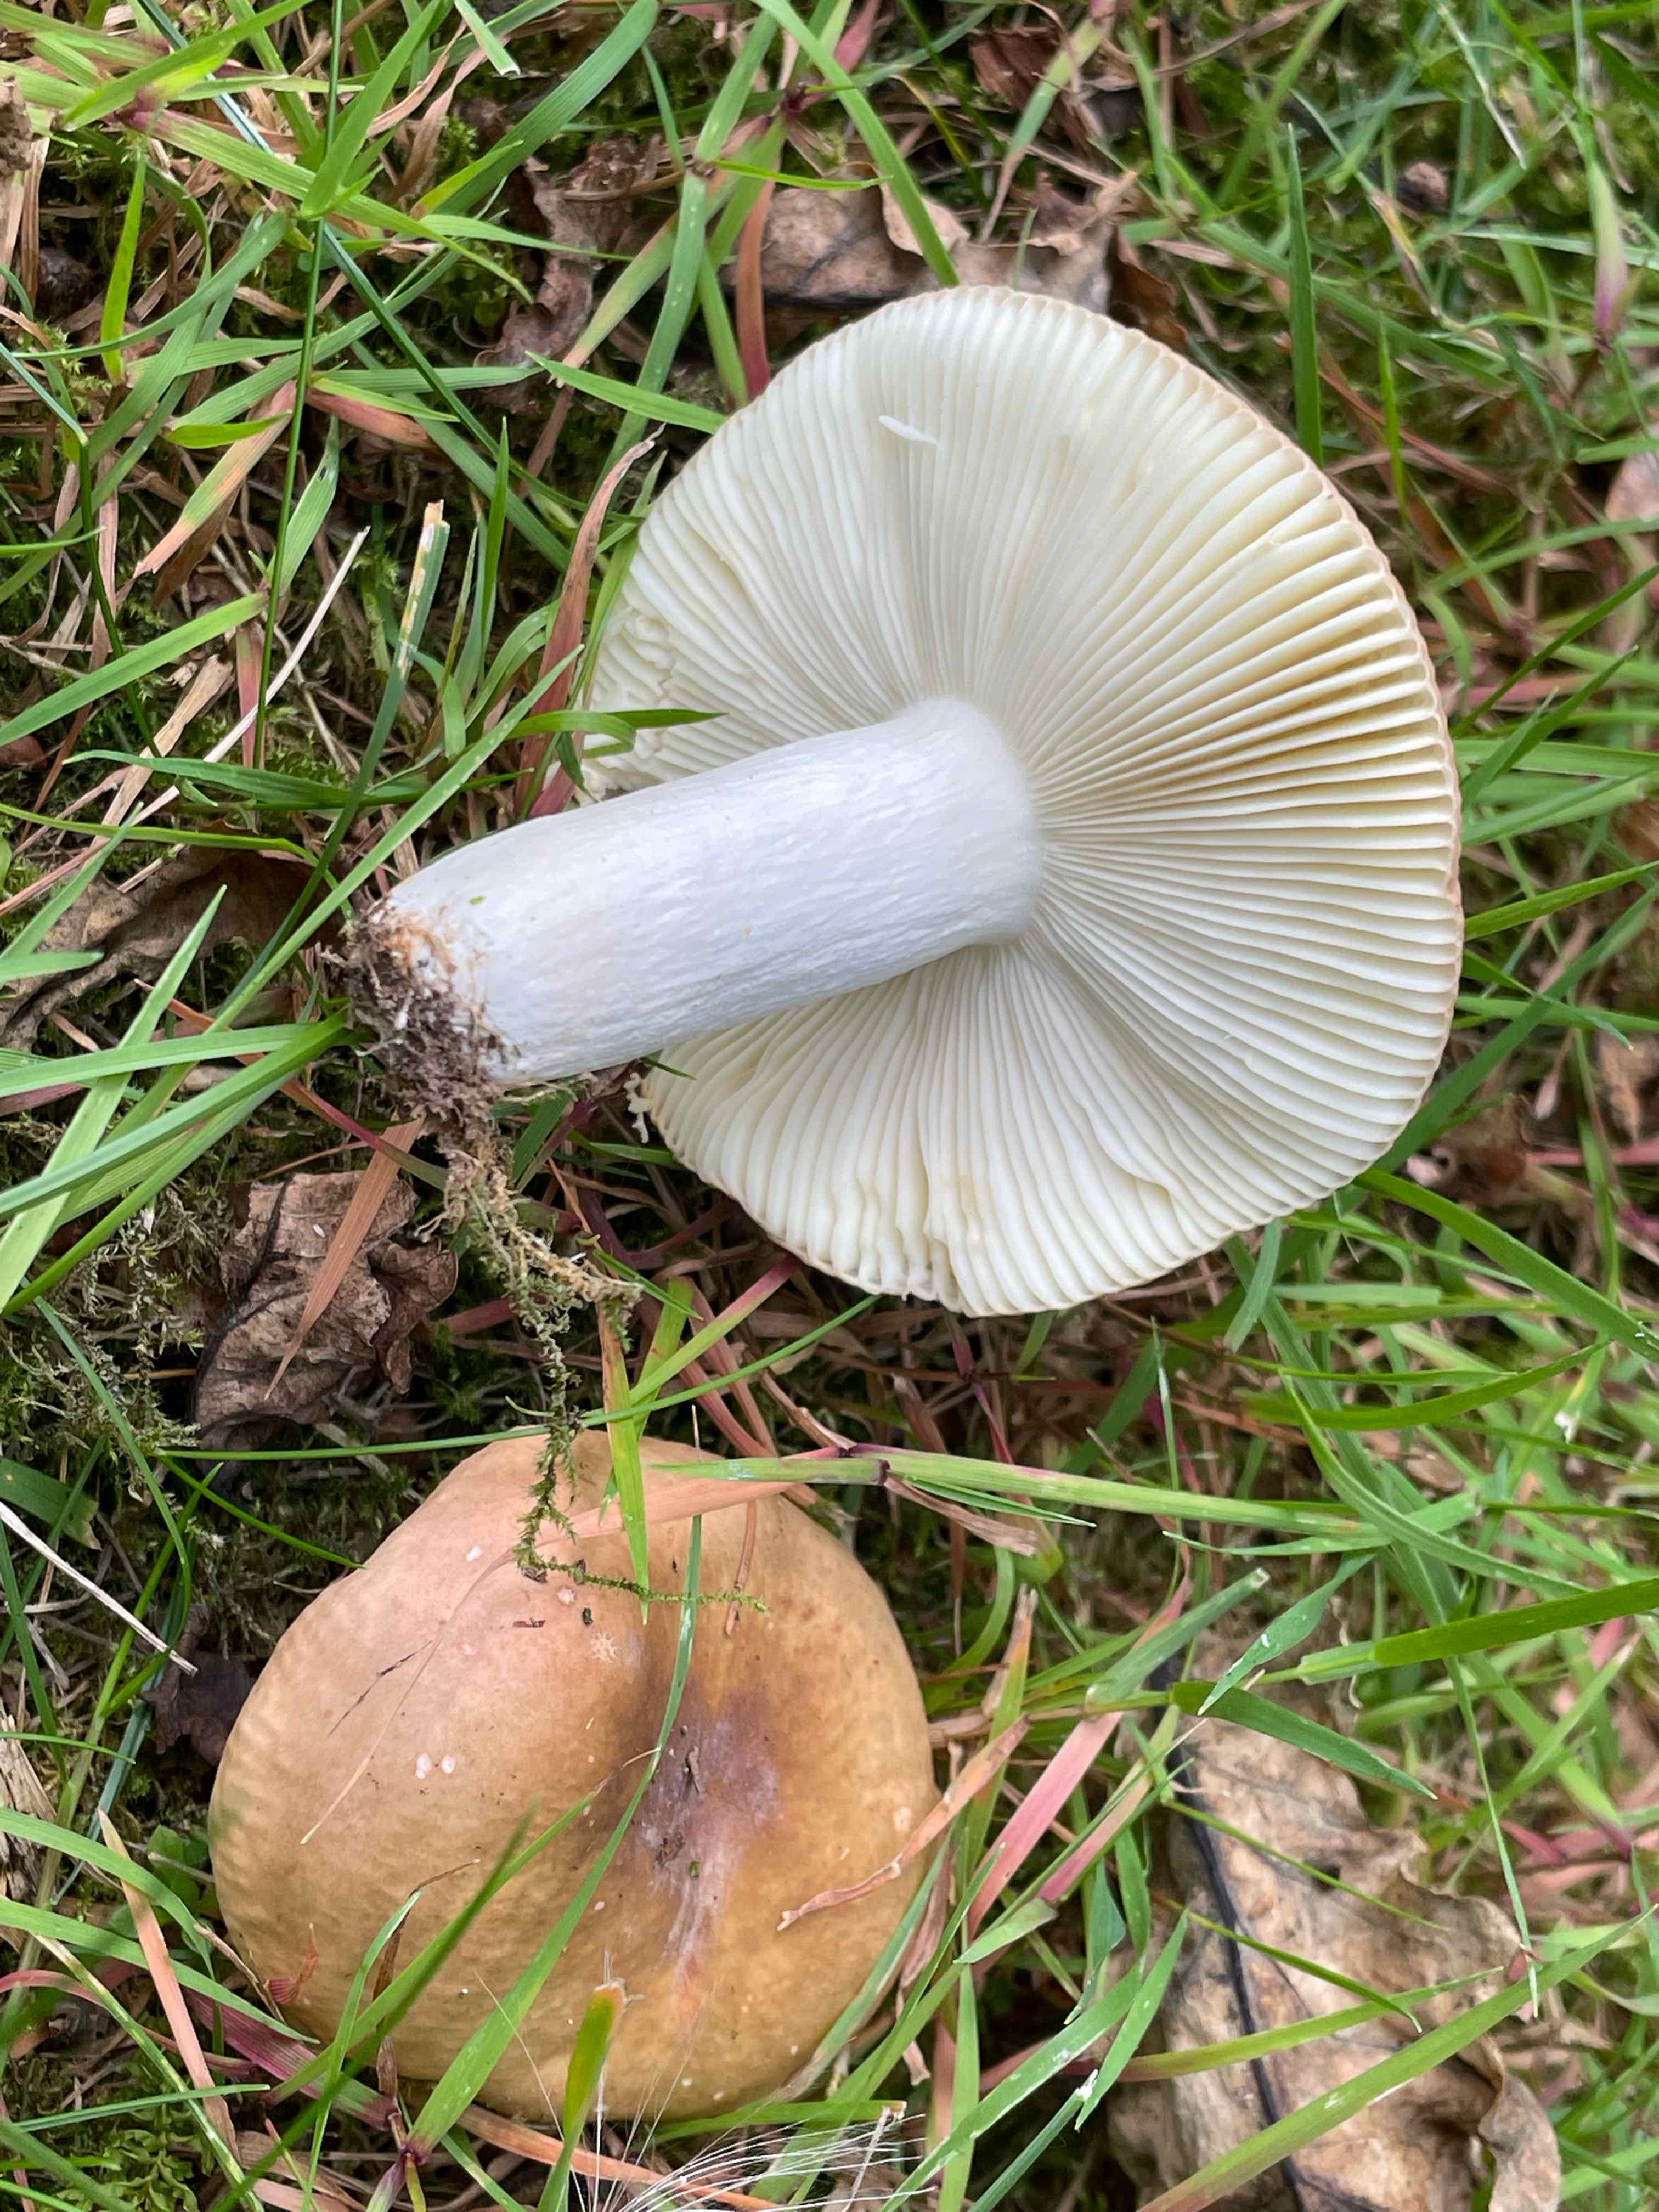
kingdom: Fungi
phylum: Basidiomycota
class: Agaricomycetes
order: Russulales
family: Russulaceae
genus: Russula
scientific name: Russula
